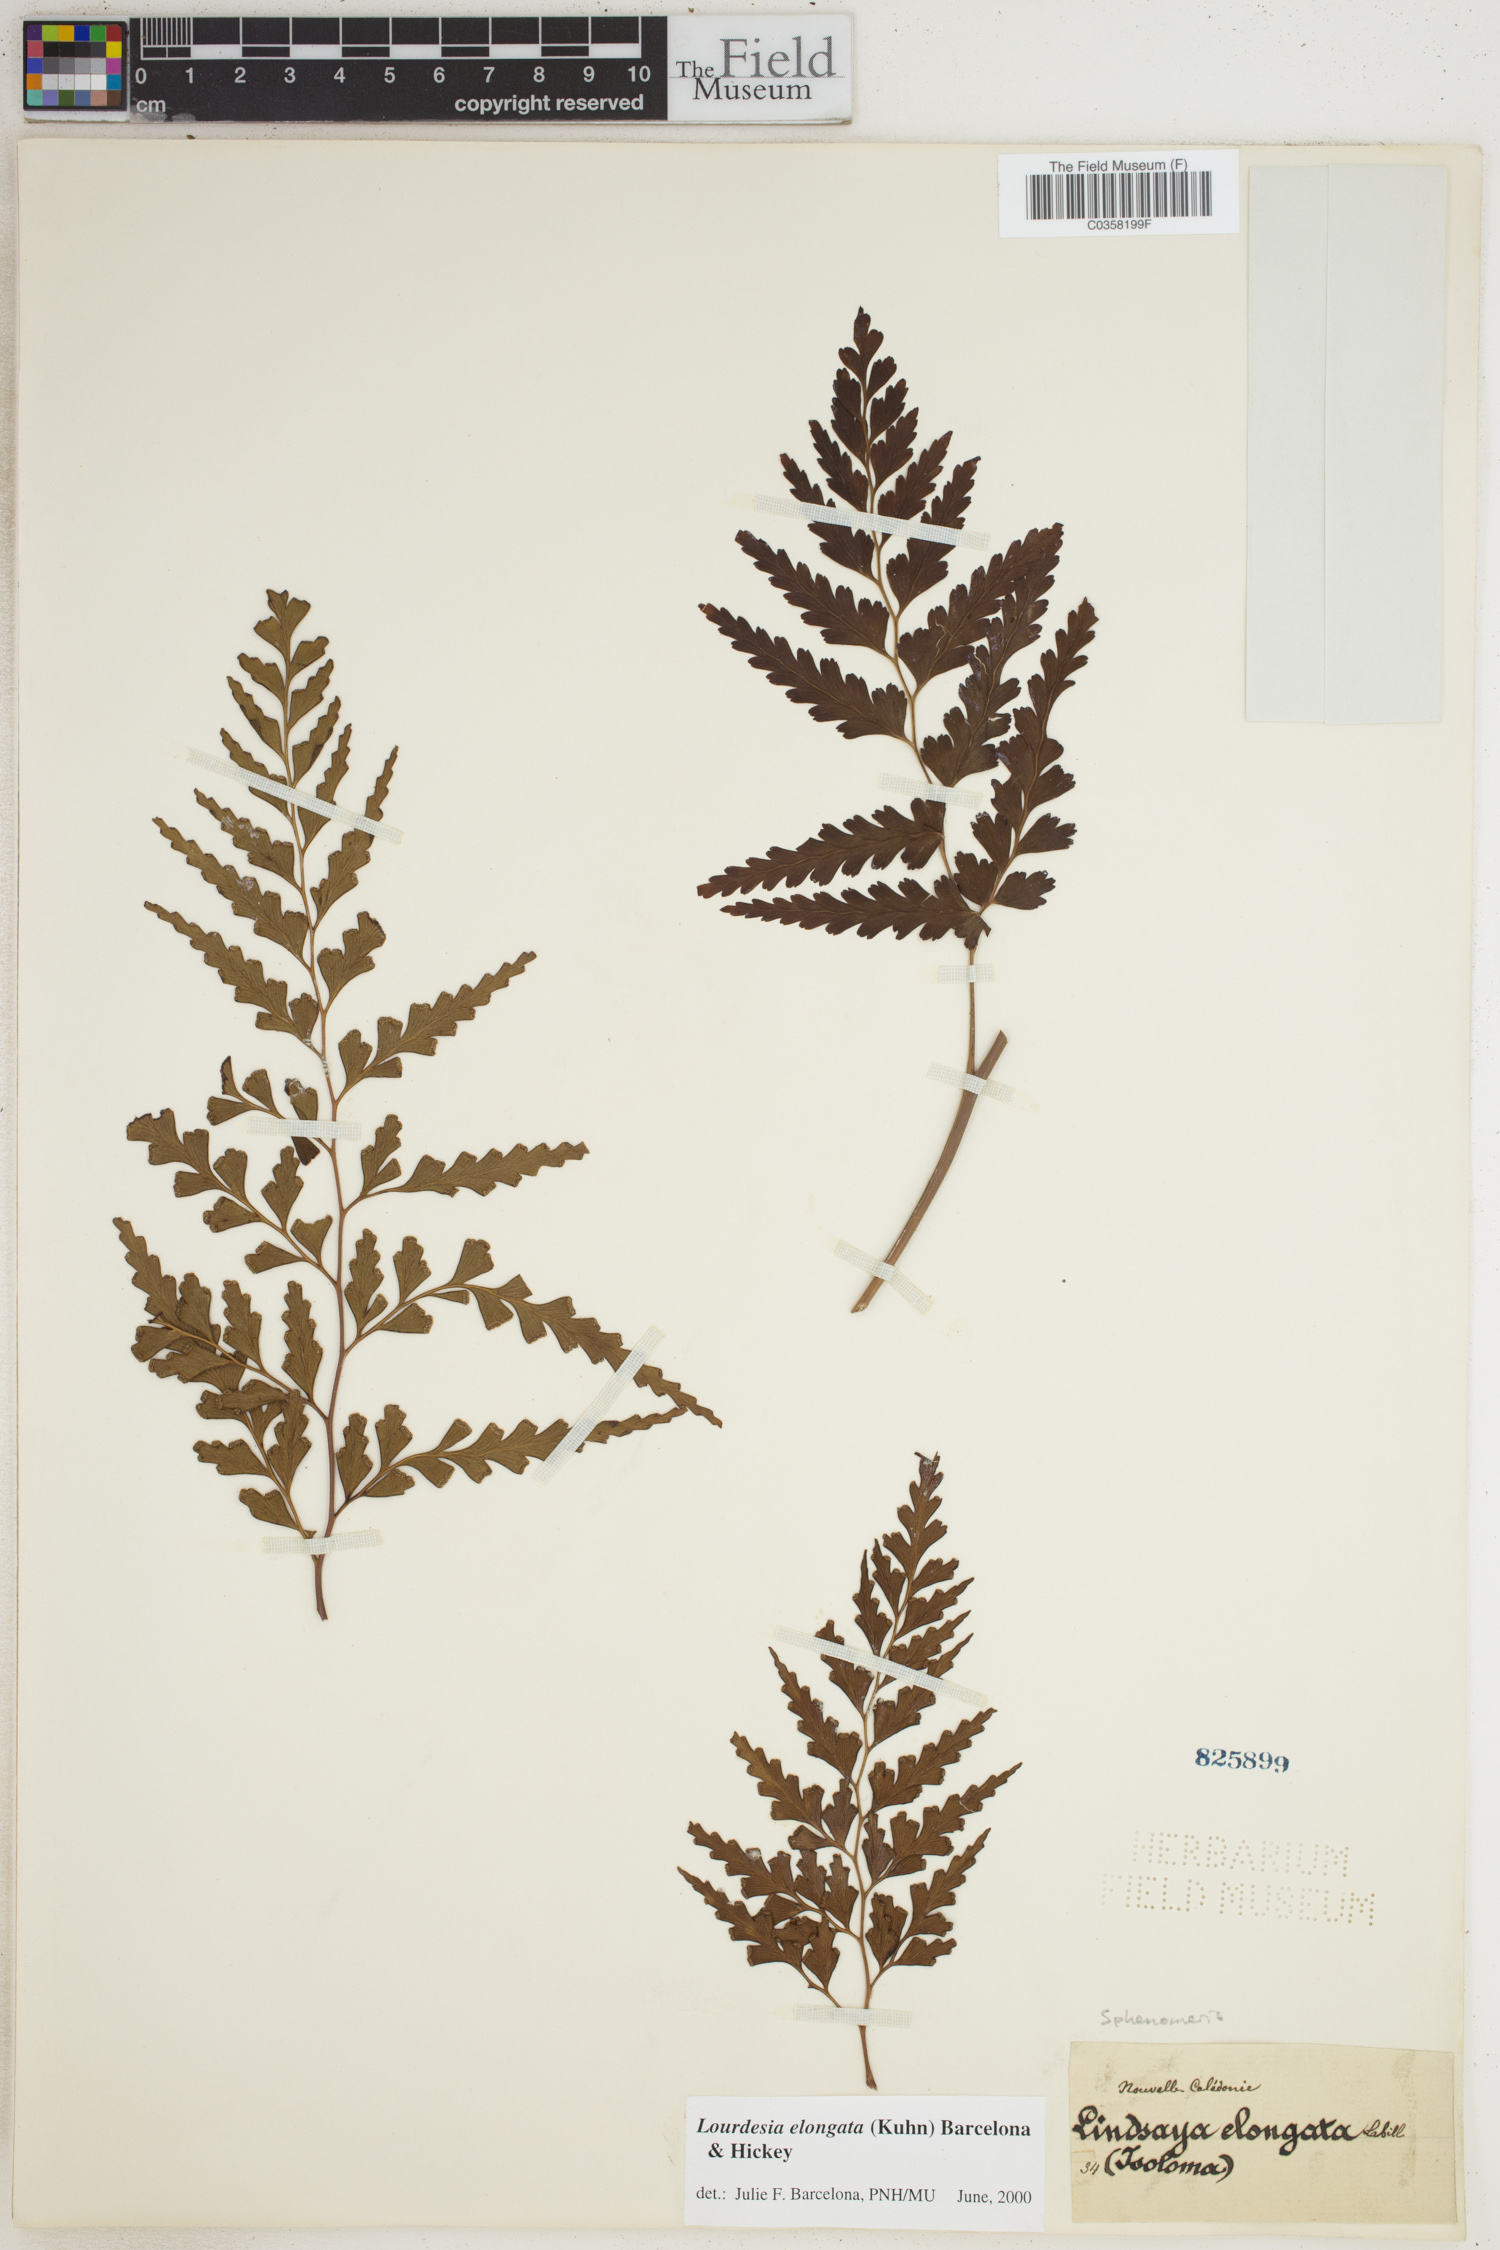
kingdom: Plantae
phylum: Tracheophyta
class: Polypodiopsida
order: Polypodiales
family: Lindsaeaceae
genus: Odontosoria
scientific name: Odontosoria deltoidea
